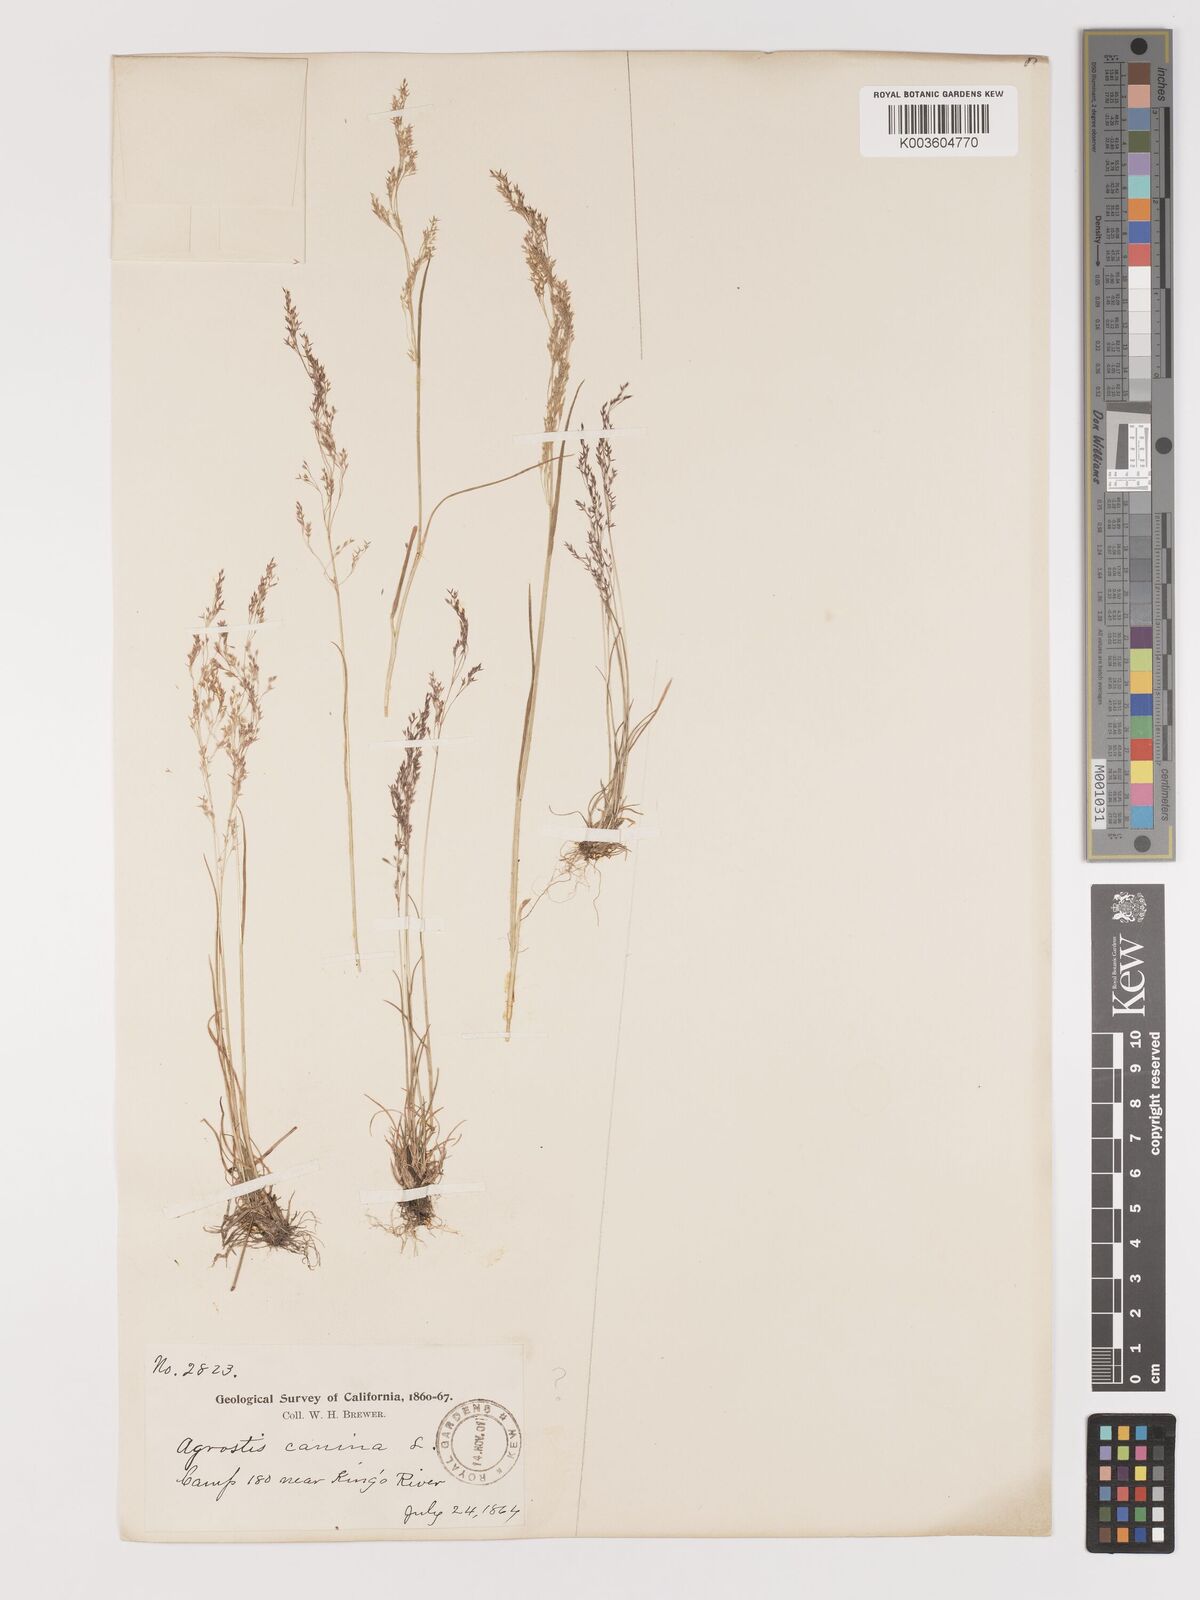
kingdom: Plantae
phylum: Tracheophyta
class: Liliopsida
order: Poales
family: Poaceae
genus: Agrostis
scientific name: Agrostis canina
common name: Velvet bent
